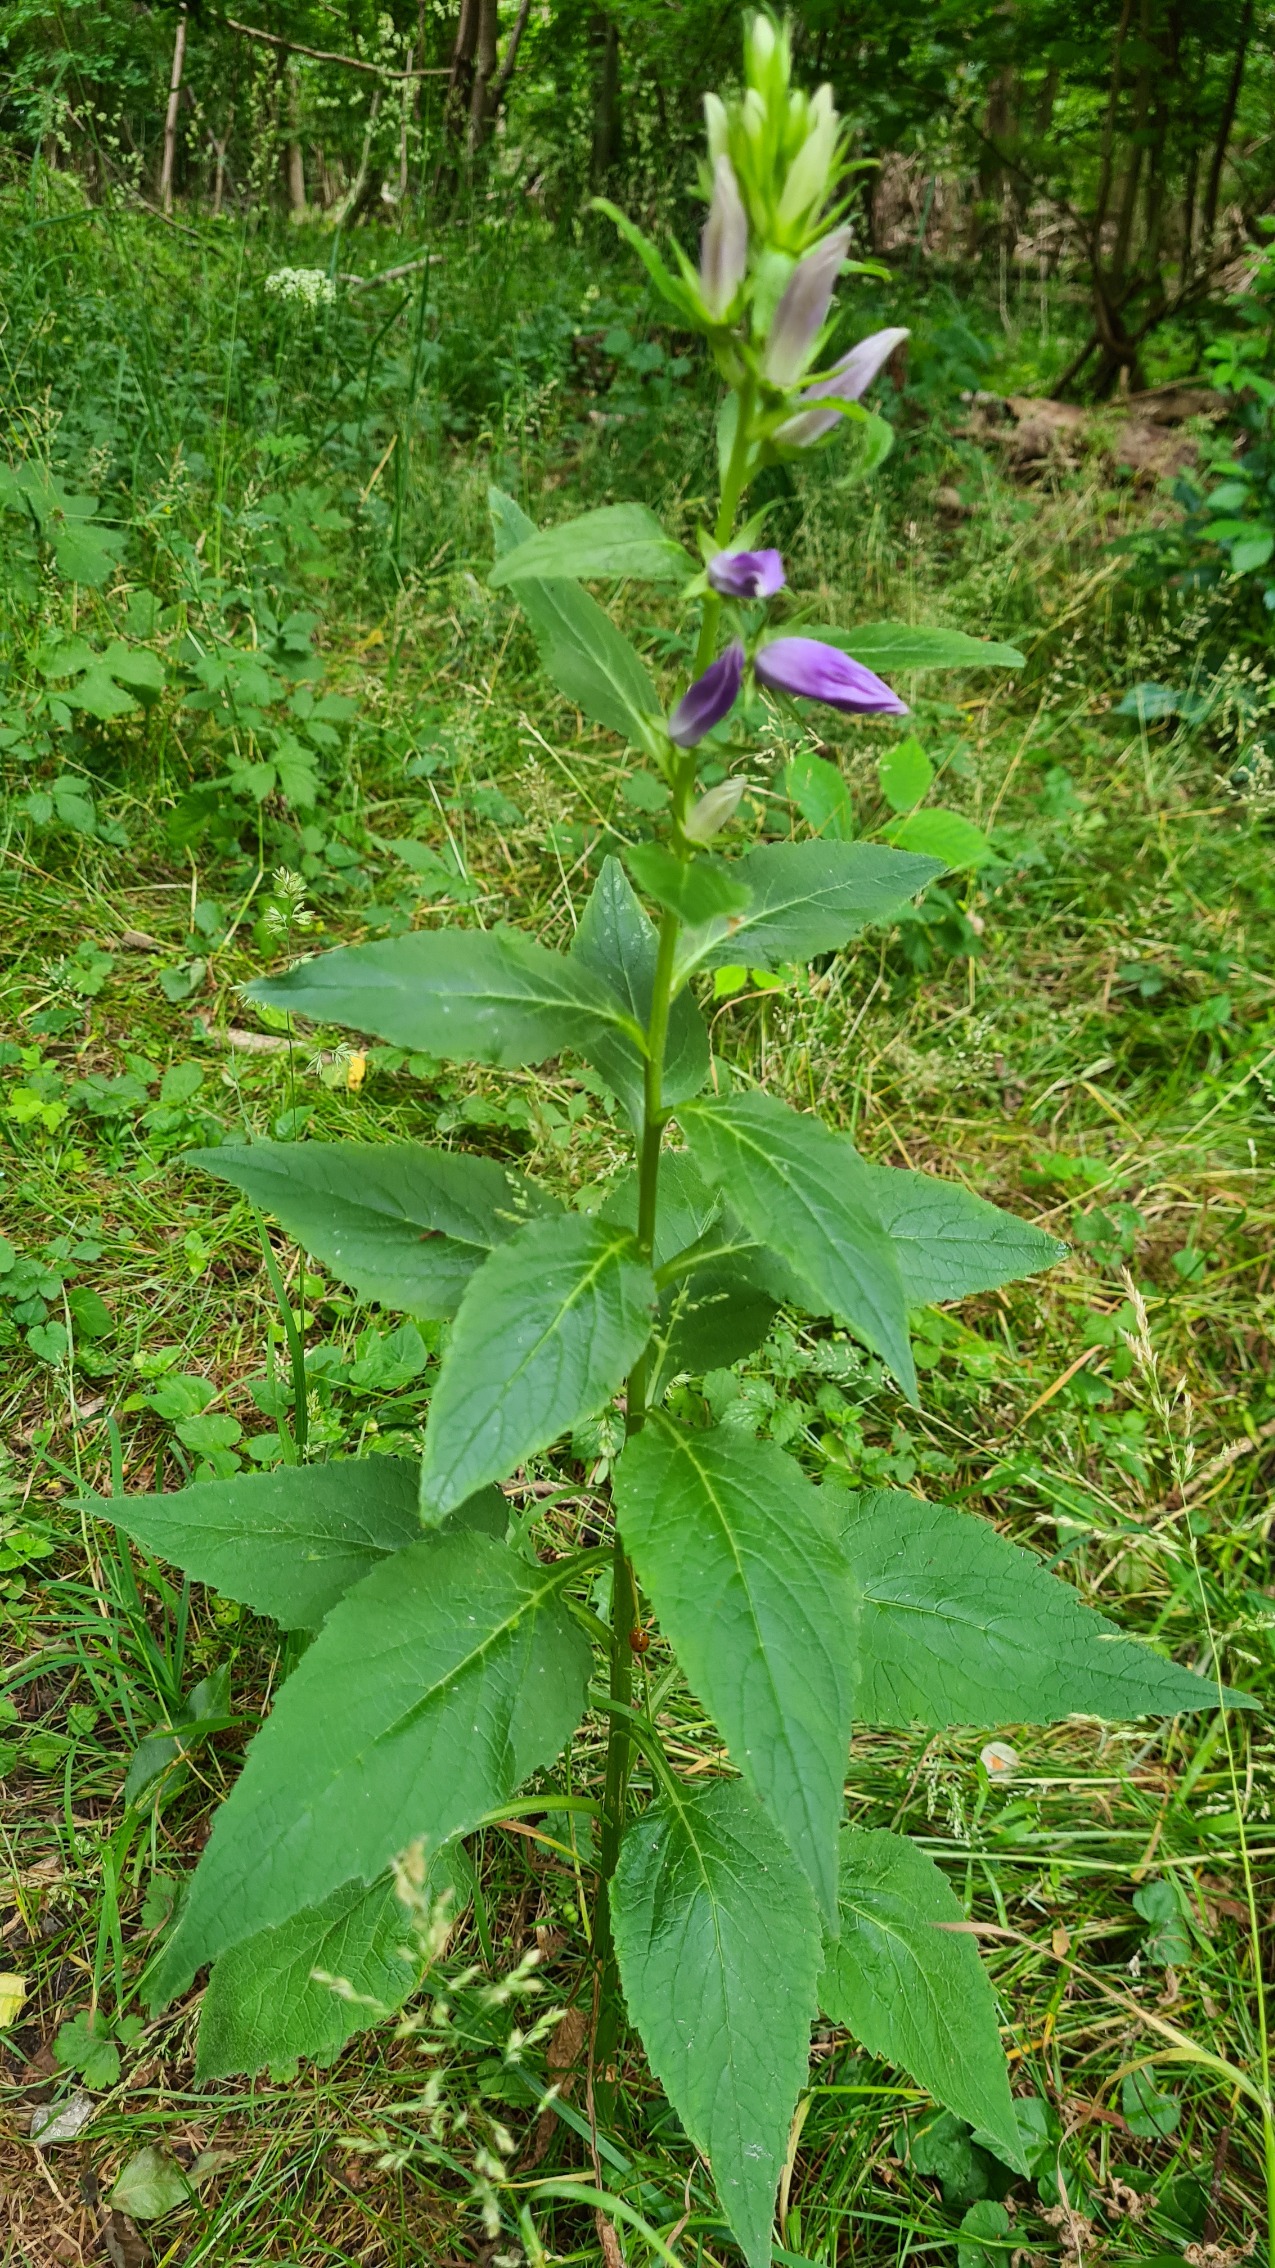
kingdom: Plantae
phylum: Tracheophyta
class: Magnoliopsida
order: Asterales
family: Campanulaceae
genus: Campanula
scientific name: Campanula latifolia
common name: Bredbladet klokke
